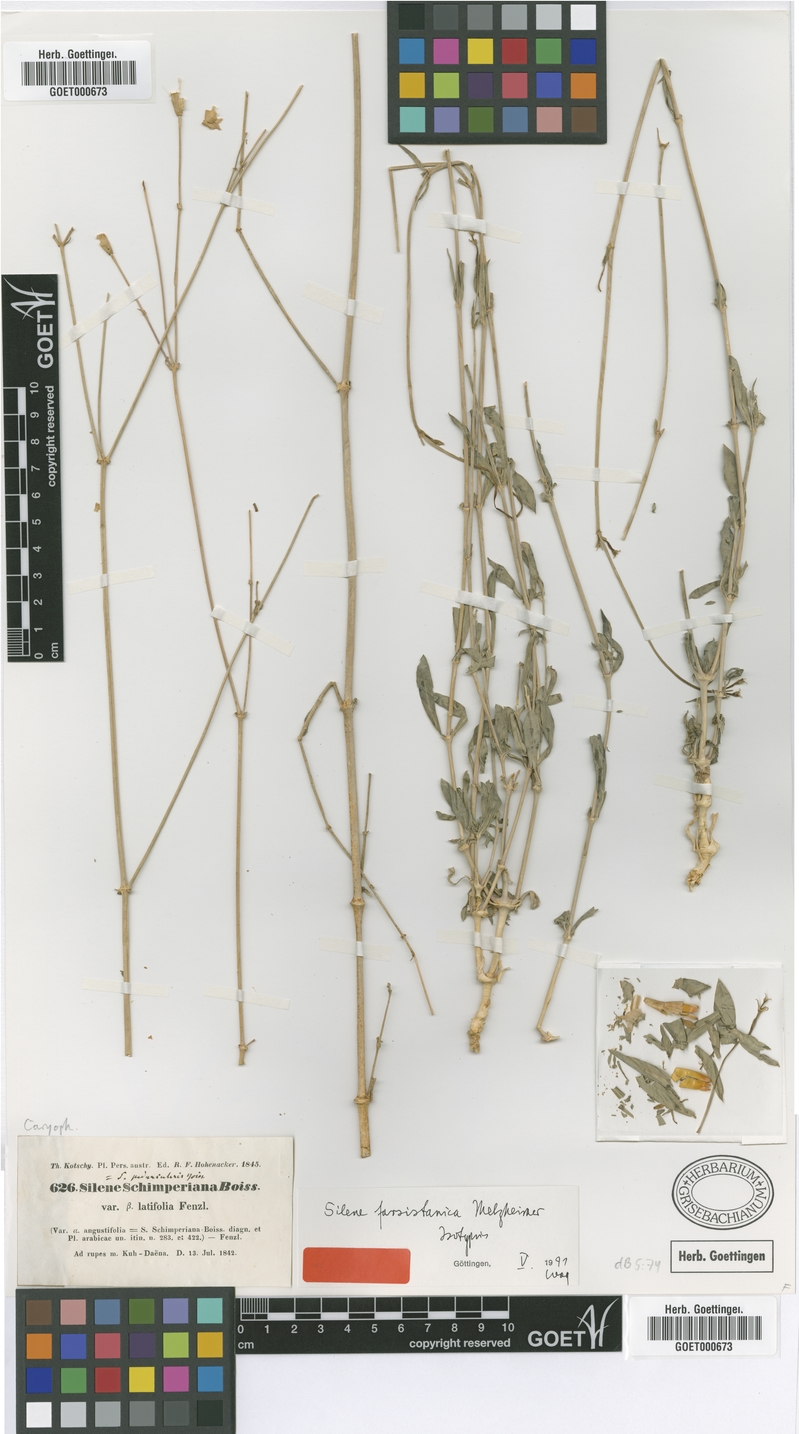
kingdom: Plantae
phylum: Tracheophyta
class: Magnoliopsida
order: Caryophyllales
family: Caryophyllaceae
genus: Silene
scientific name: Silene farsistanica
